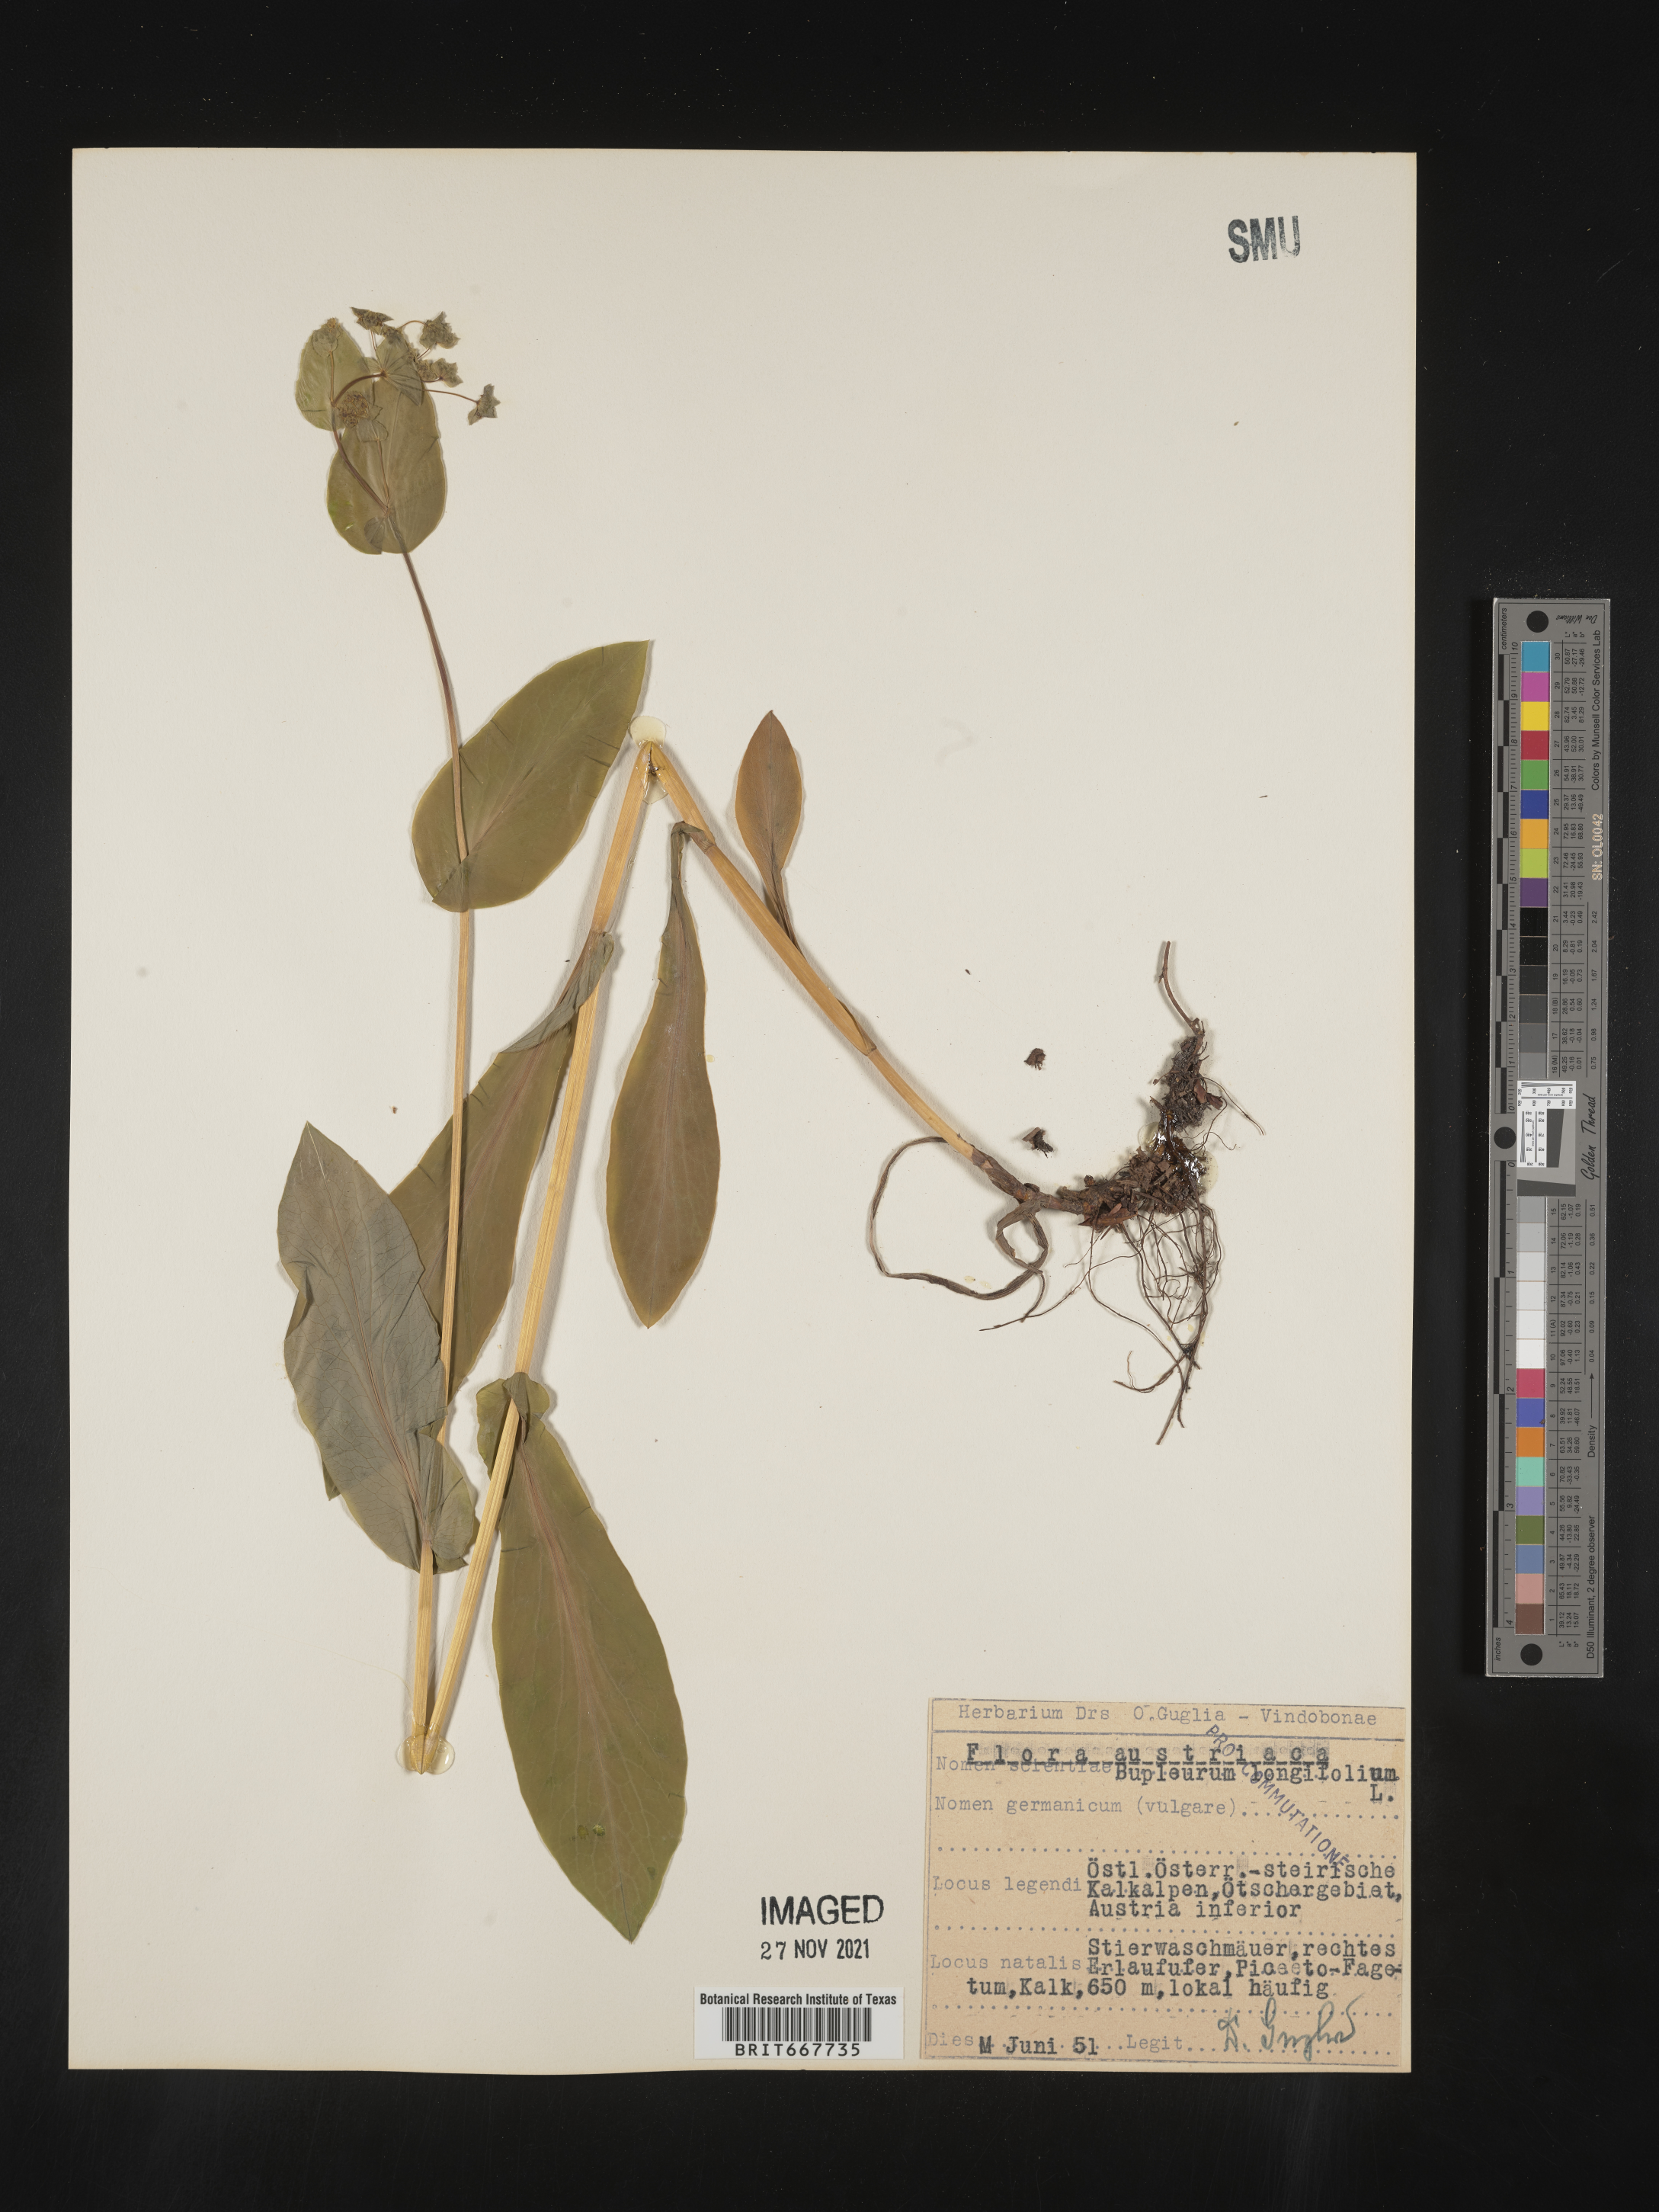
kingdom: Plantae
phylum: Tracheophyta
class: Magnoliopsida
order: Apiales
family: Apiaceae
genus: Bupleurum
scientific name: Bupleurum
